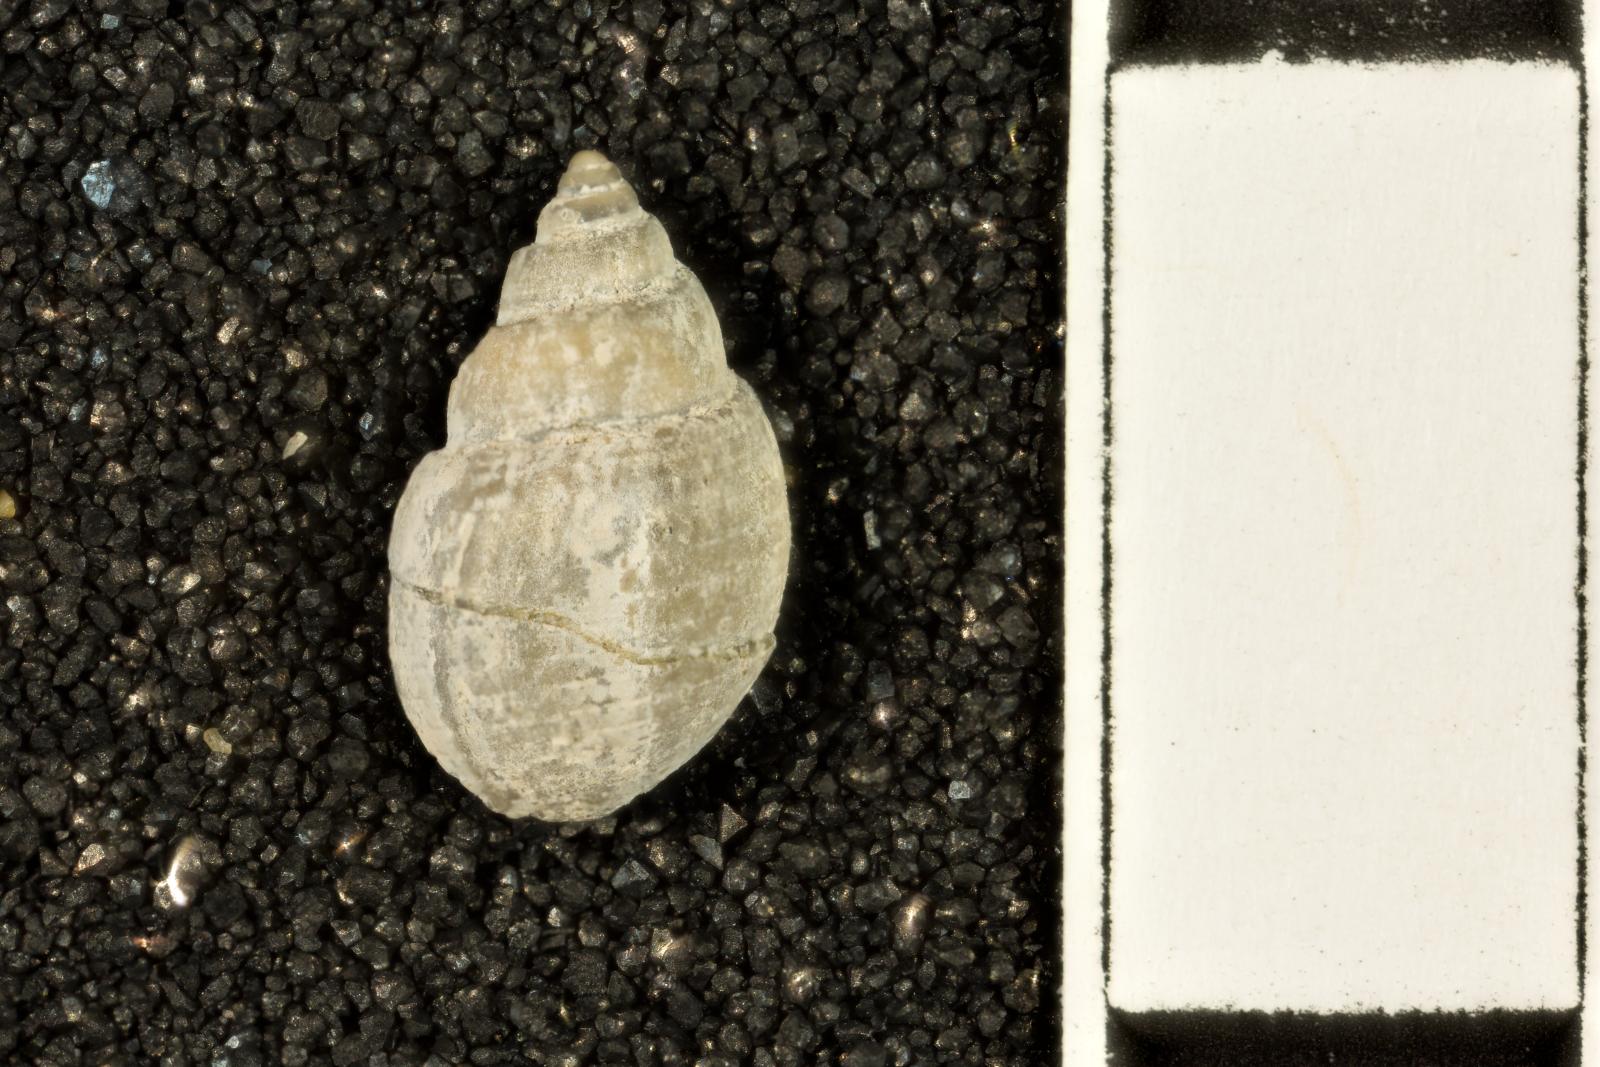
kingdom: Animalia
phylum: Mollusca
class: Gastropoda
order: Cephalaspidea
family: Acteonidae
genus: Acteon
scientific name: Acteon politus
